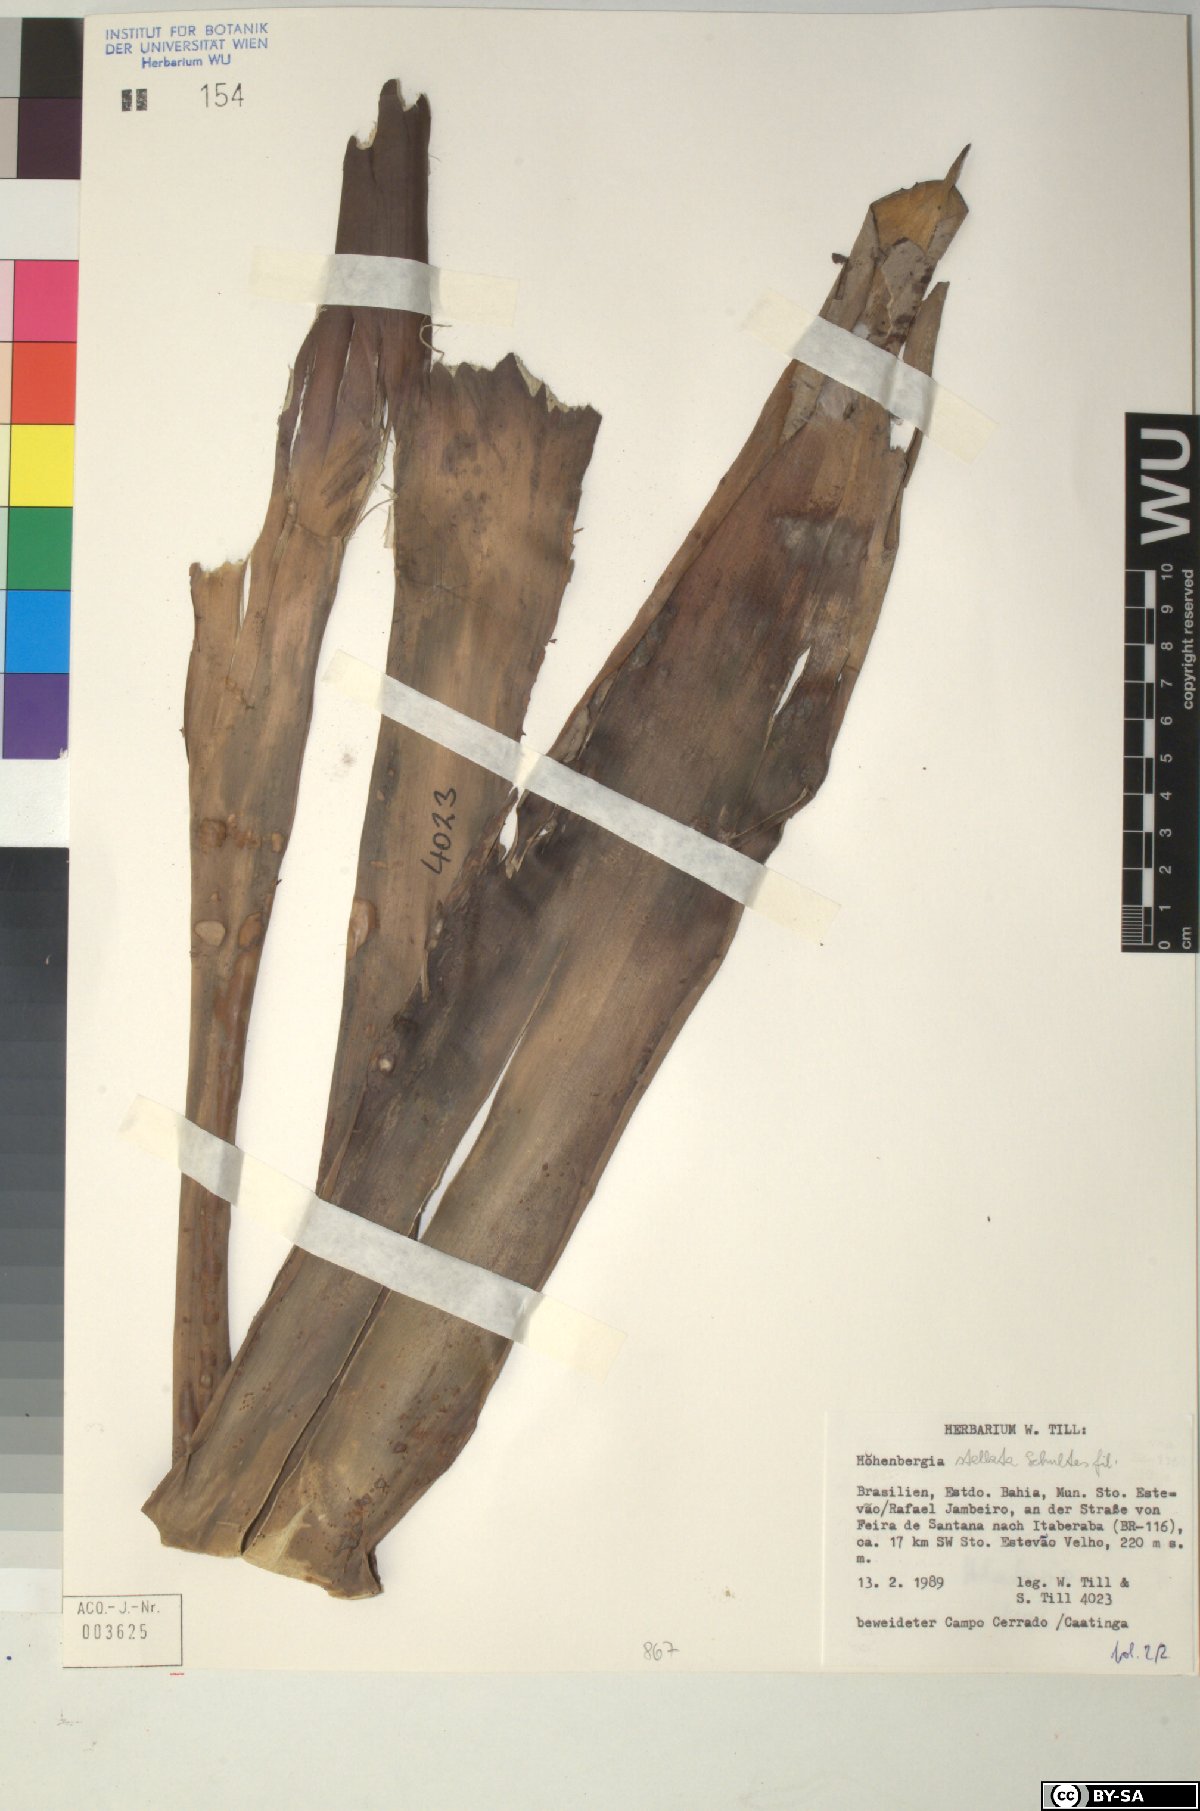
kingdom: Plantae
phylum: Tracheophyta
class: Liliopsida
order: Poales
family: Bromeliaceae
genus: Hohenbergia
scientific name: Hohenbergia
